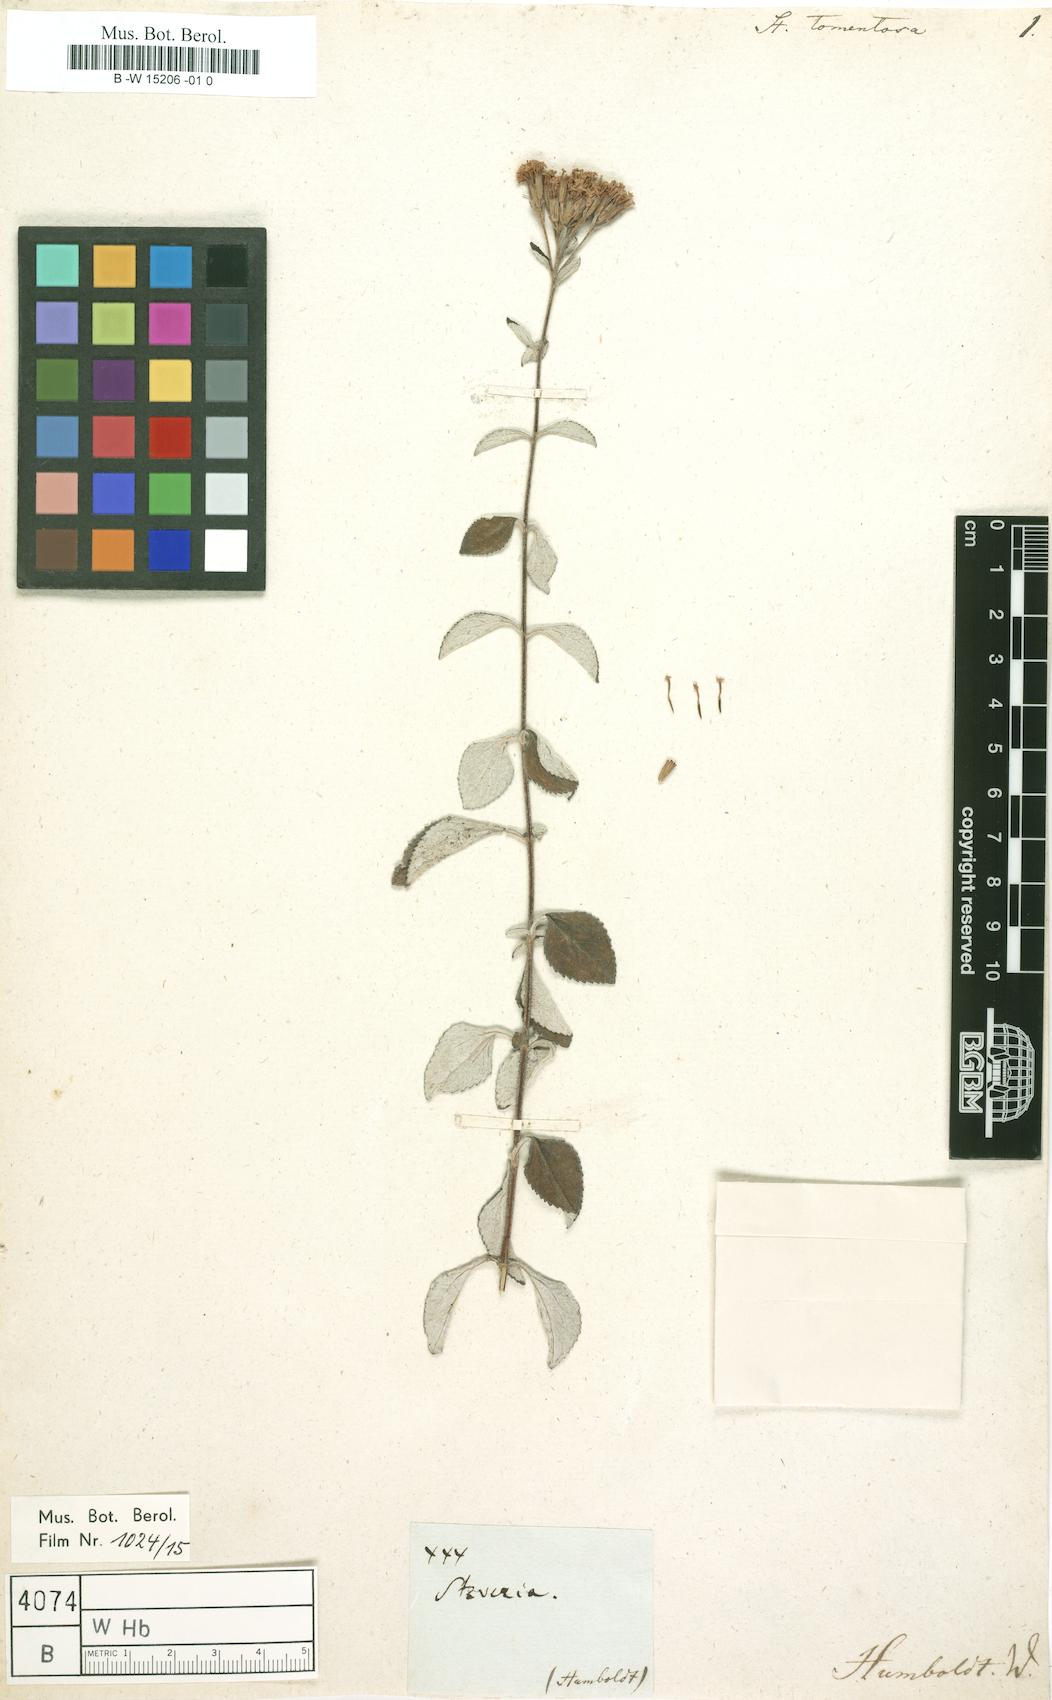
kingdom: Plantae
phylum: Tracheophyta
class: Magnoliopsida
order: Asterales
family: Asteraceae
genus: Stevia
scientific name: Stevia tomentosa
